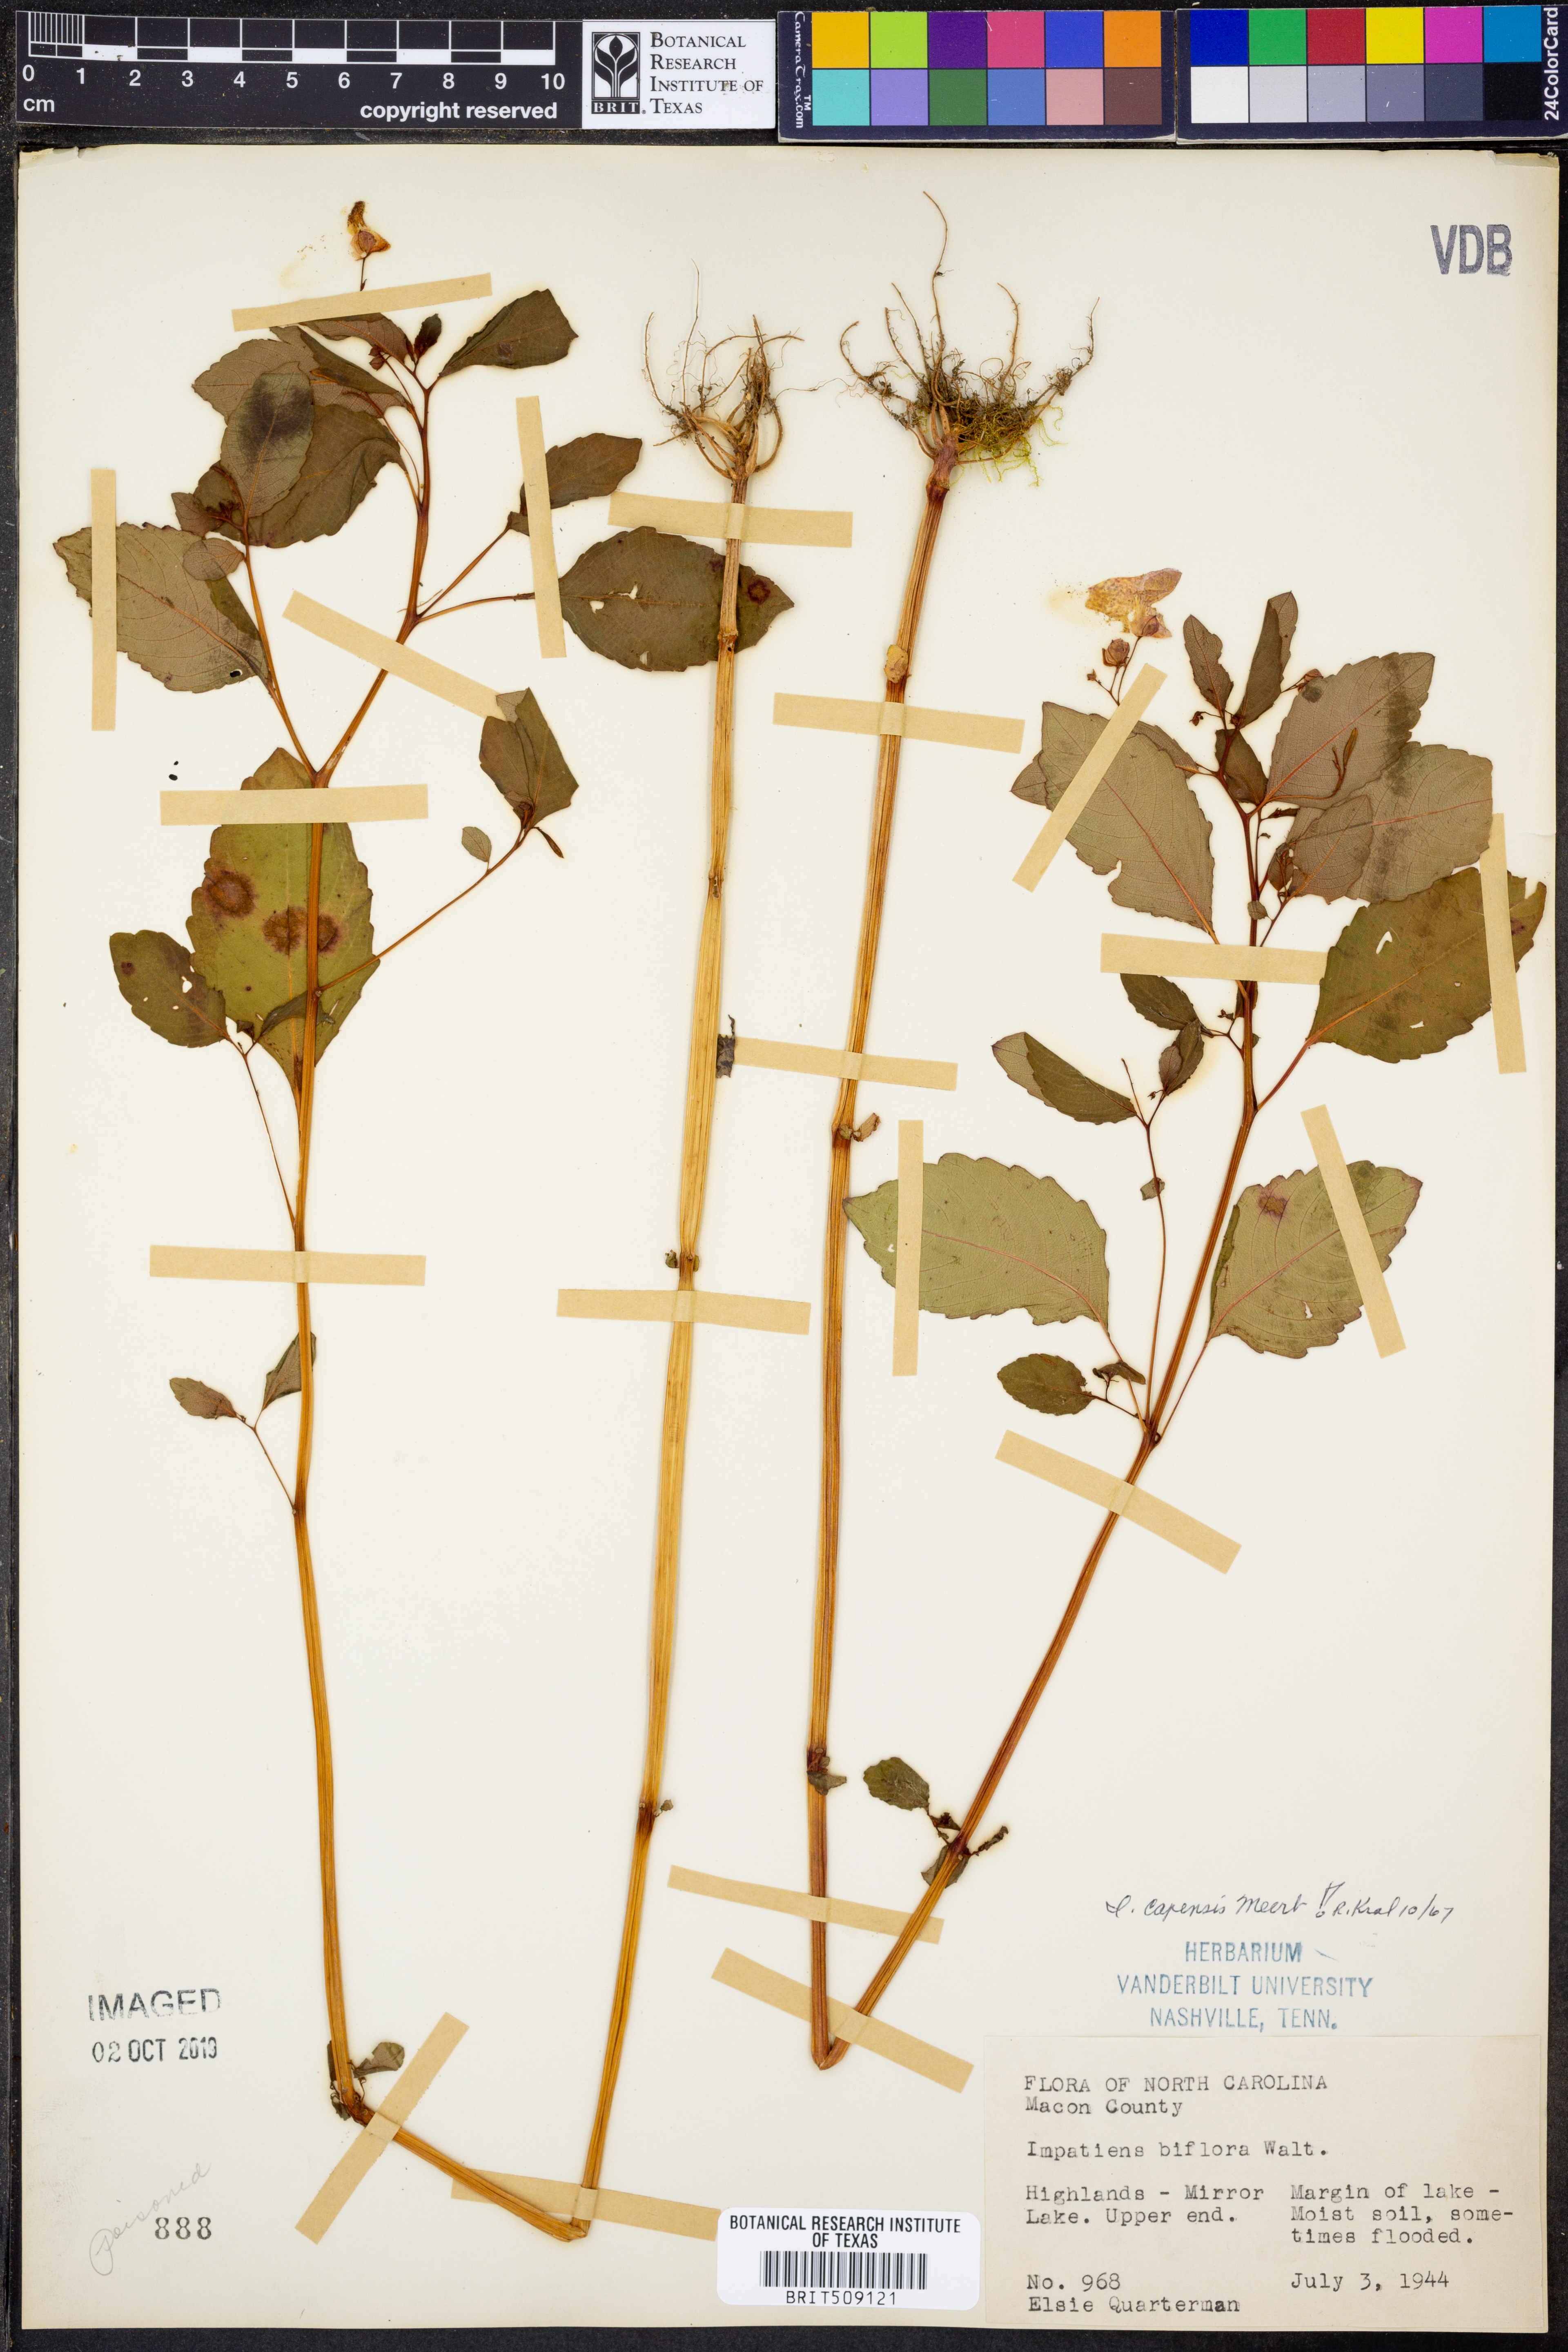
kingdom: Plantae
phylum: Tracheophyta
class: Magnoliopsida
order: Ericales
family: Balsaminaceae
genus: Impatiens
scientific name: Impatiens capensis
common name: Orange balsam
